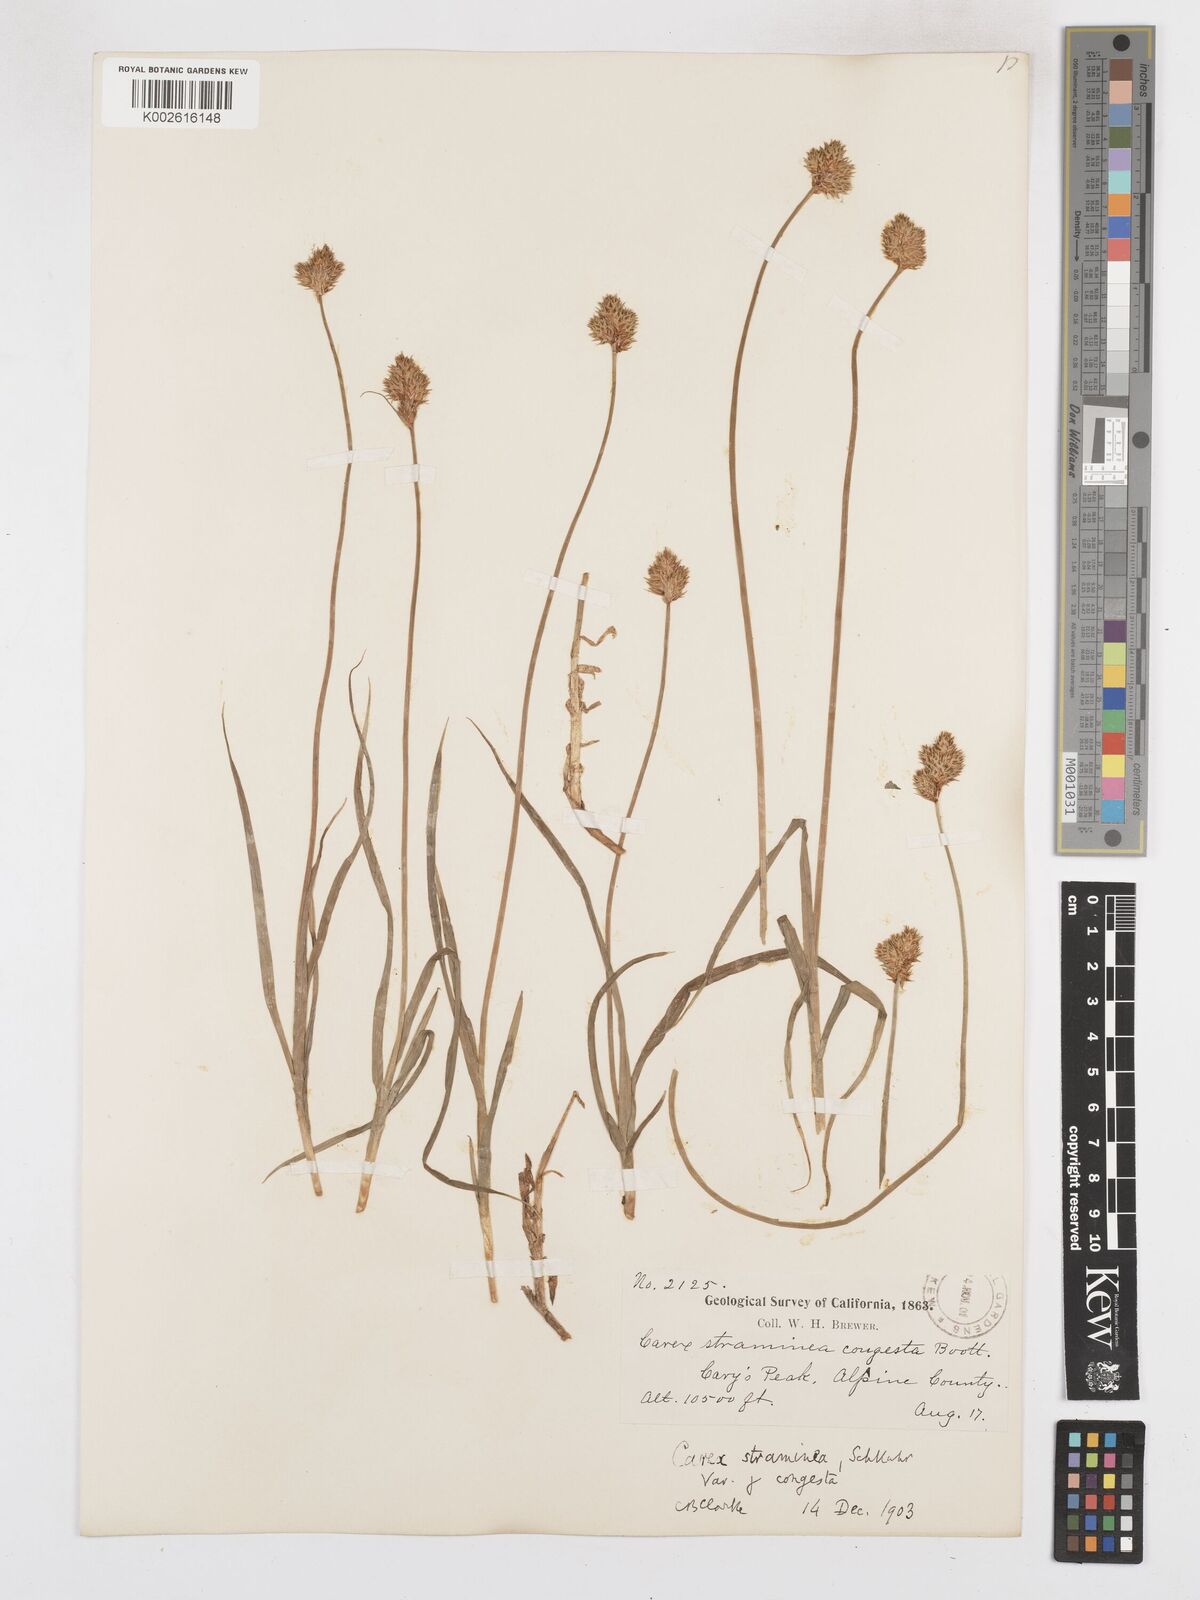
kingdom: Plantae
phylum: Tracheophyta
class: Liliopsida
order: Poales
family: Cyperaceae
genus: Carex
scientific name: Carex brevior
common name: Brevior sedge
